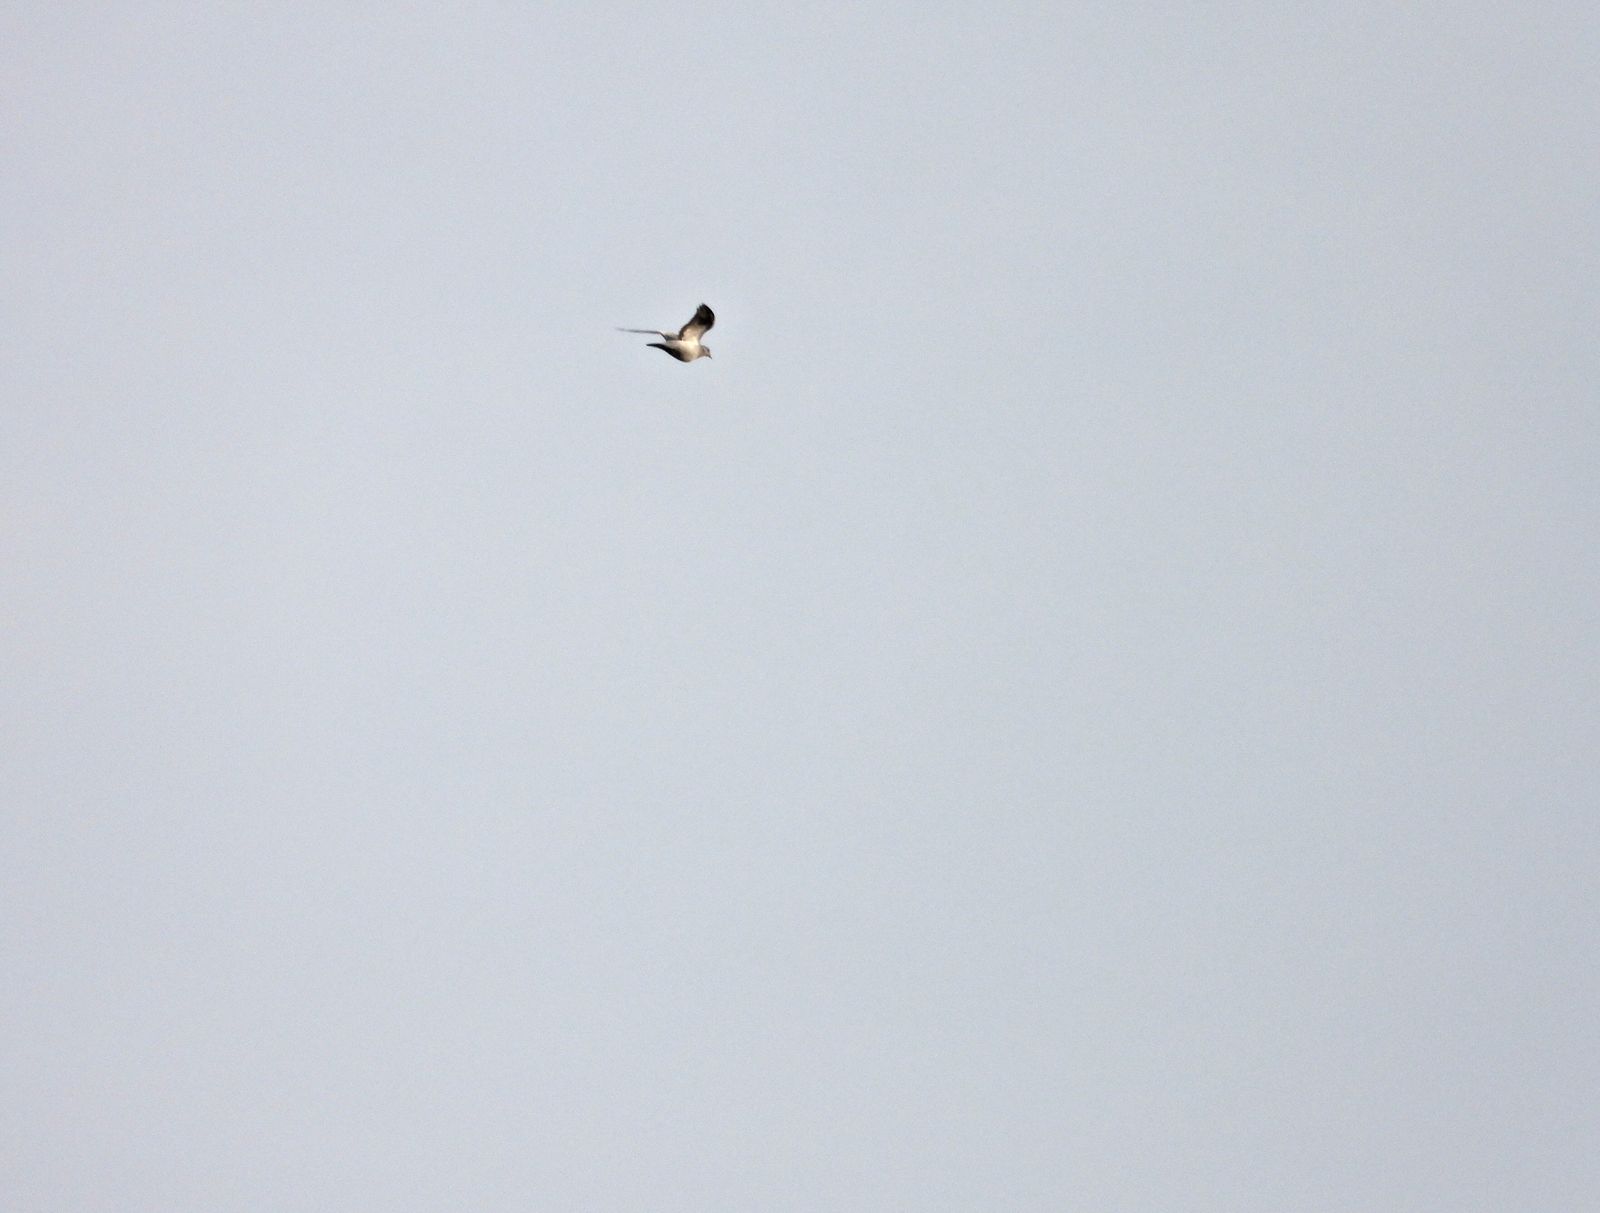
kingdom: Animalia
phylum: Chordata
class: Aves
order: Columbiformes
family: Columbidae
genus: Columba
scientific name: Columba oenas
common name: Stock dove
